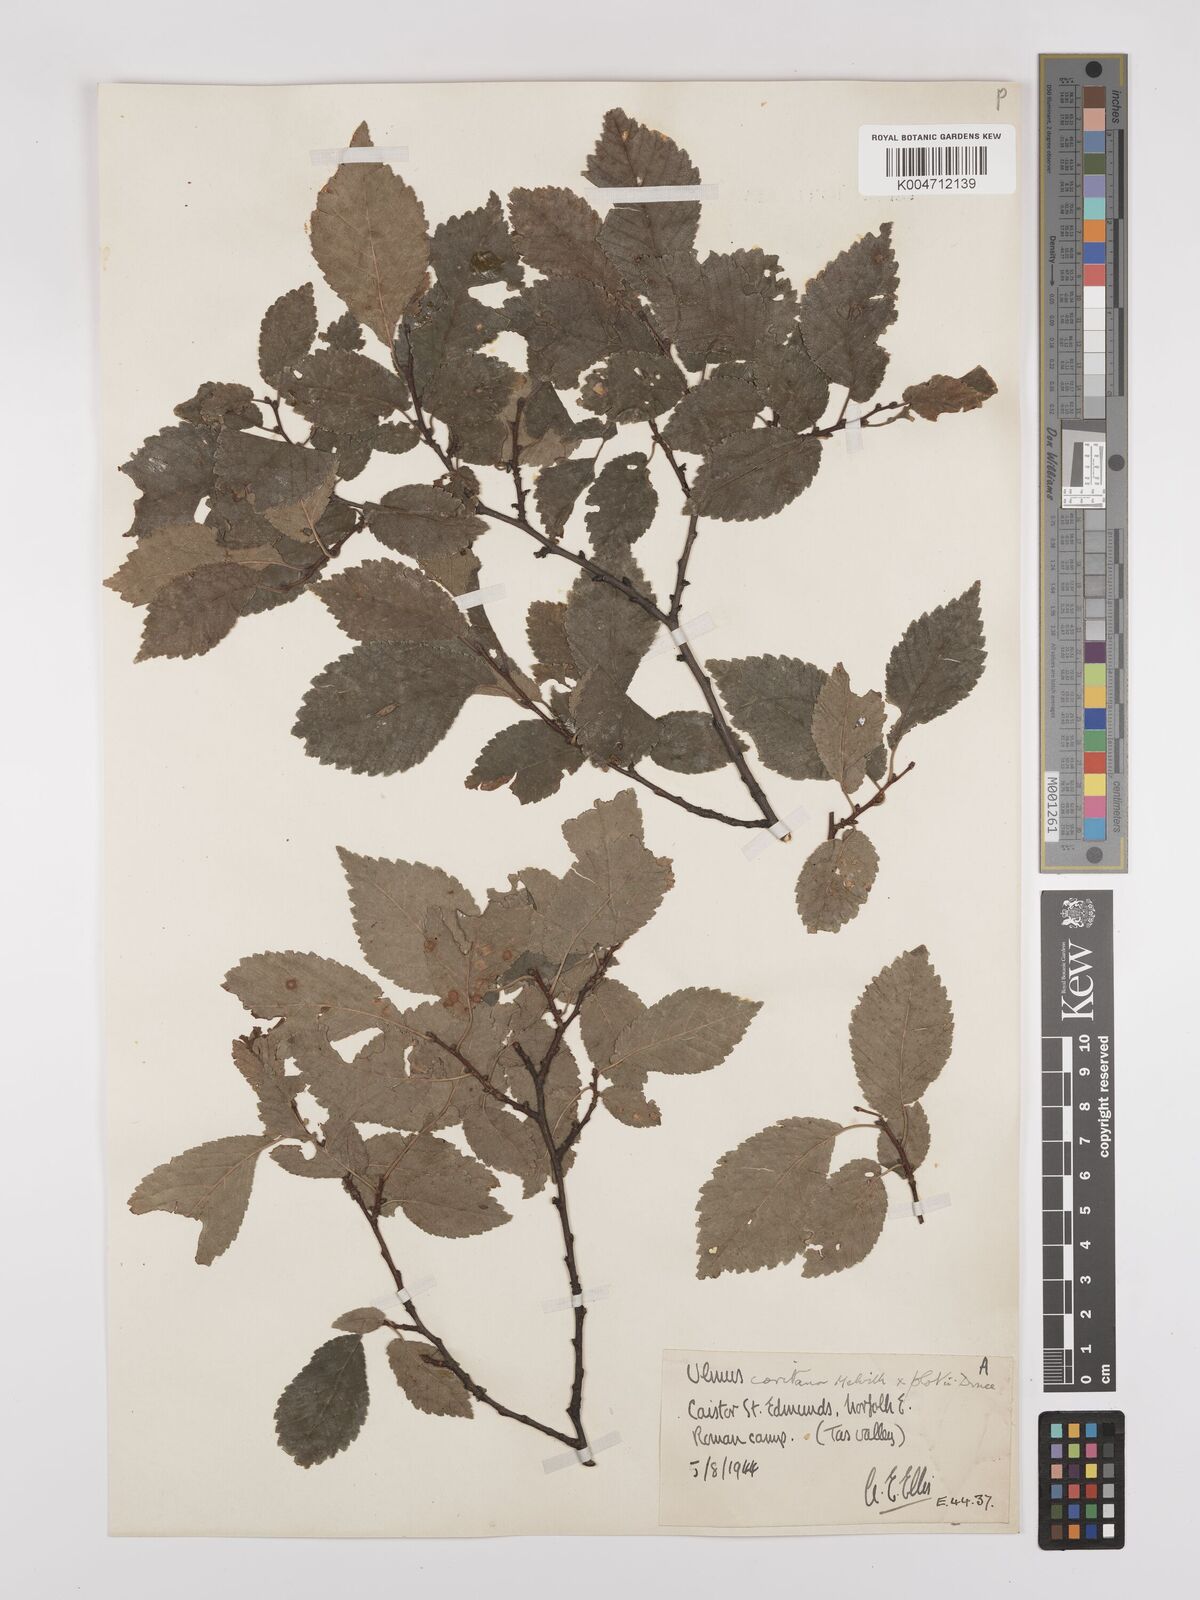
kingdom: Plantae
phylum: Tracheophyta
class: Magnoliopsida
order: Rosales
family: Ulmaceae
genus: Ulmus
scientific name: Ulmus minor
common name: Small-leaved elm
